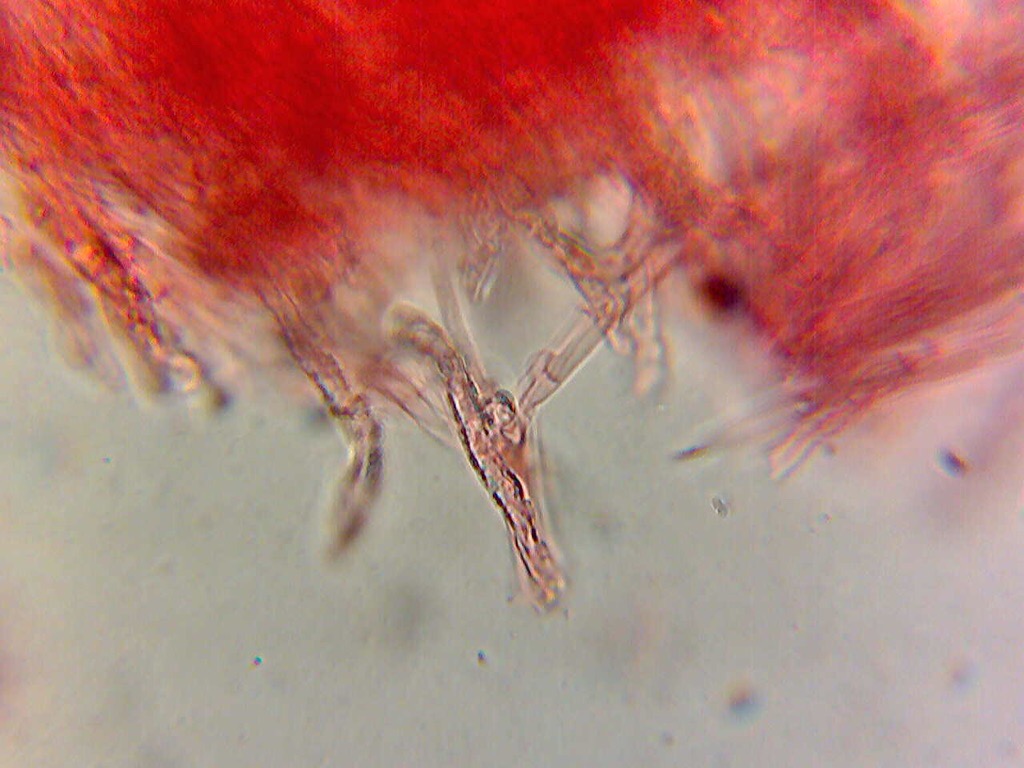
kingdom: Fungi
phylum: Basidiomycota
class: Agaricomycetes
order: Polyporales
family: Meruliaceae
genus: Mycoacia
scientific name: Mycoacia gilvescens
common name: rosa pastelporesvamp
